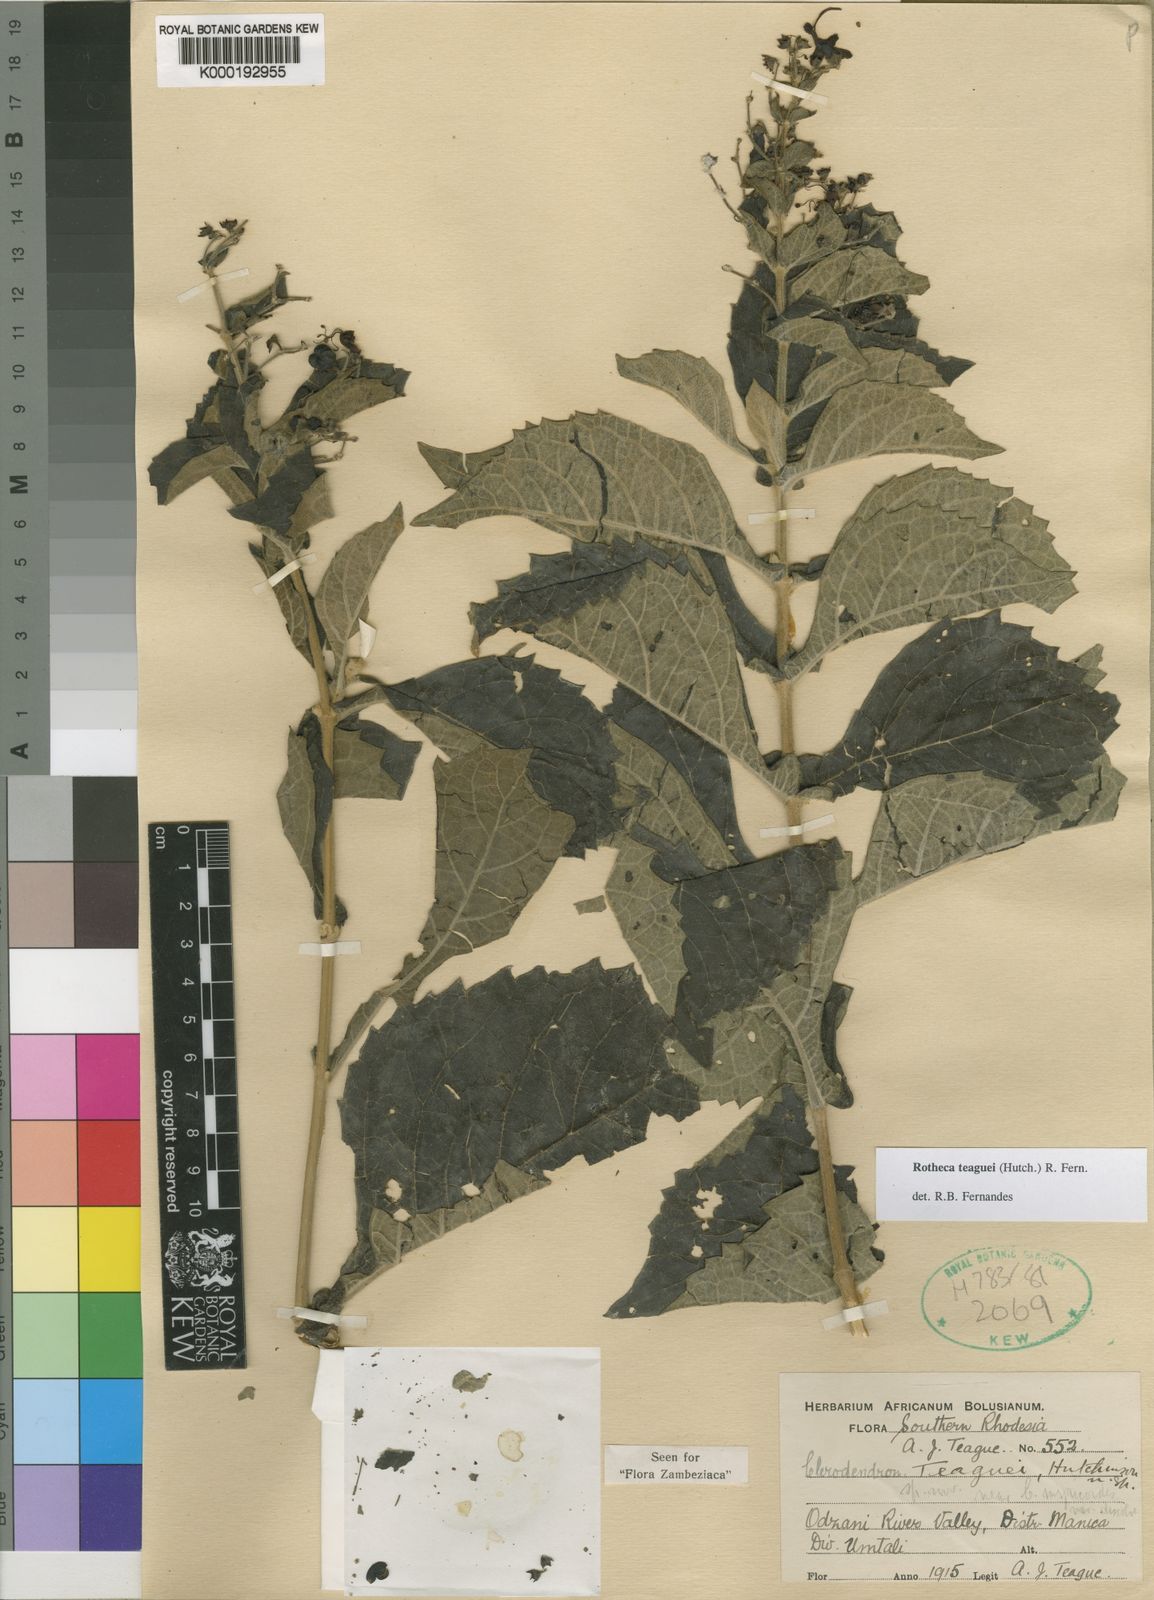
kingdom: Plantae
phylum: Tracheophyta
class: Magnoliopsida
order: Lamiales
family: Lamiaceae
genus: Rotheca
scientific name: Rotheca teaguei
